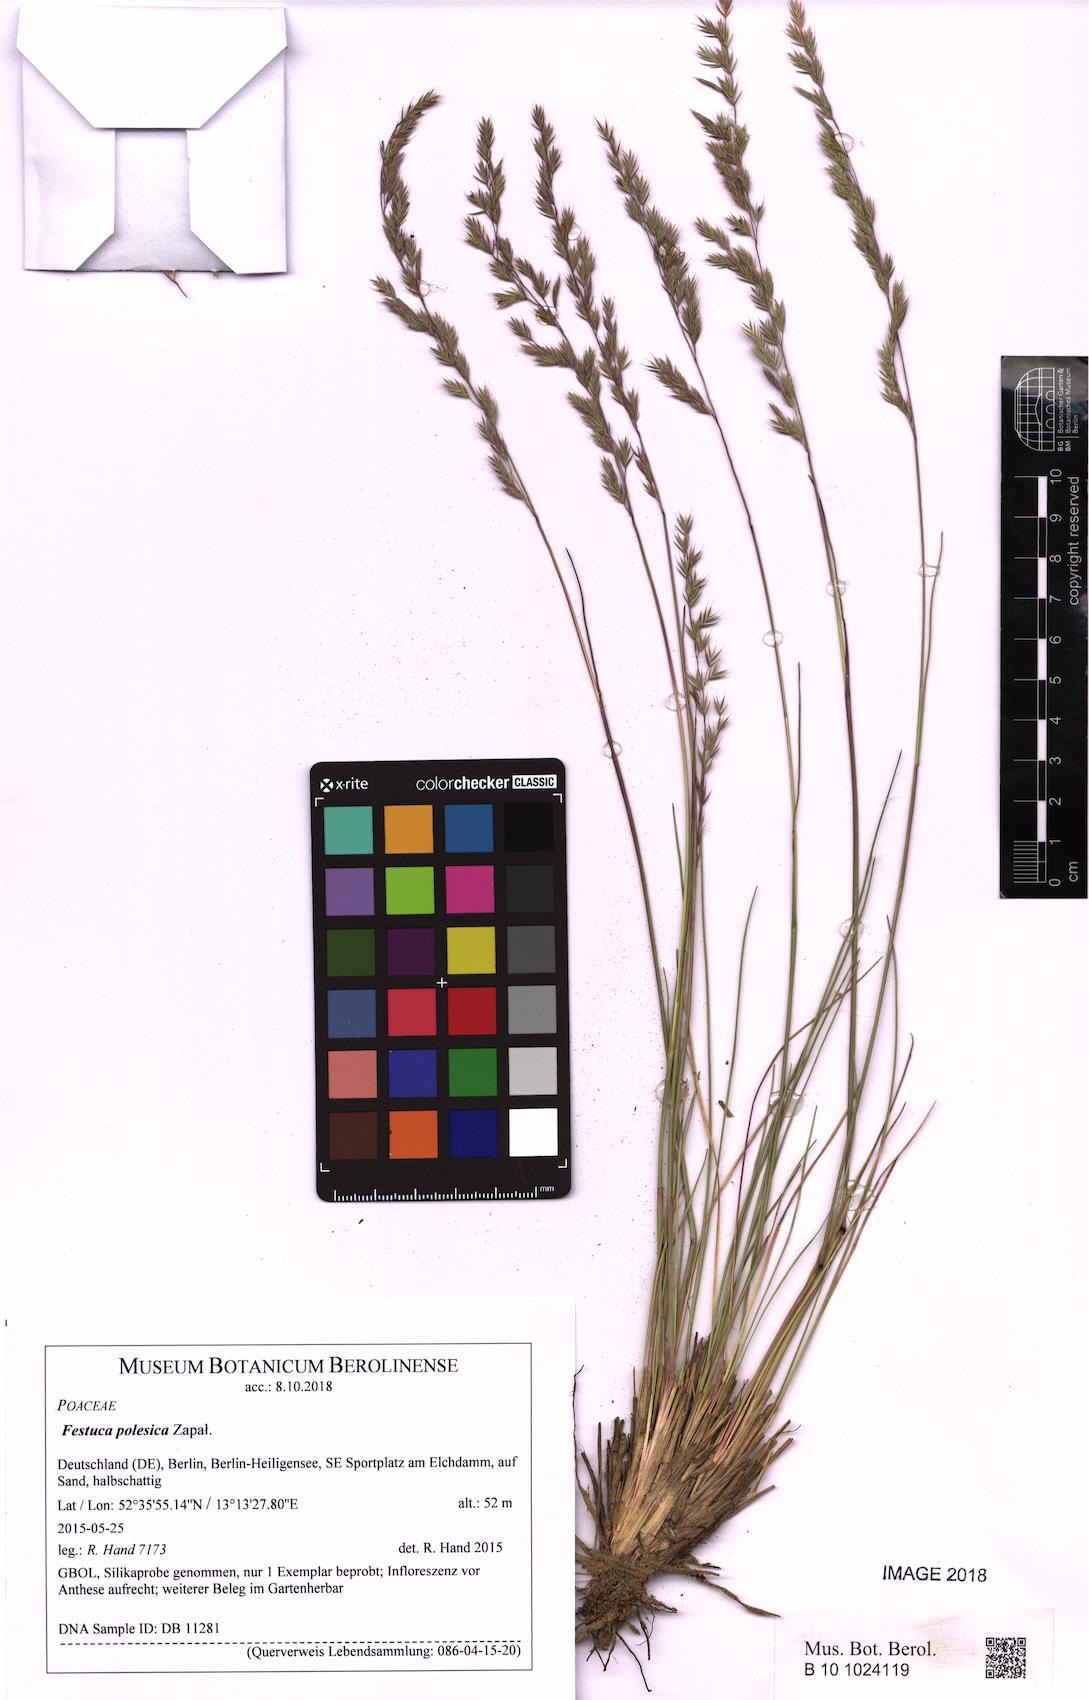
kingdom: Plantae
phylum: Tracheophyta
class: Liliopsida
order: Poales
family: Poaceae
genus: Festuca
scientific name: Festuca beckeri
